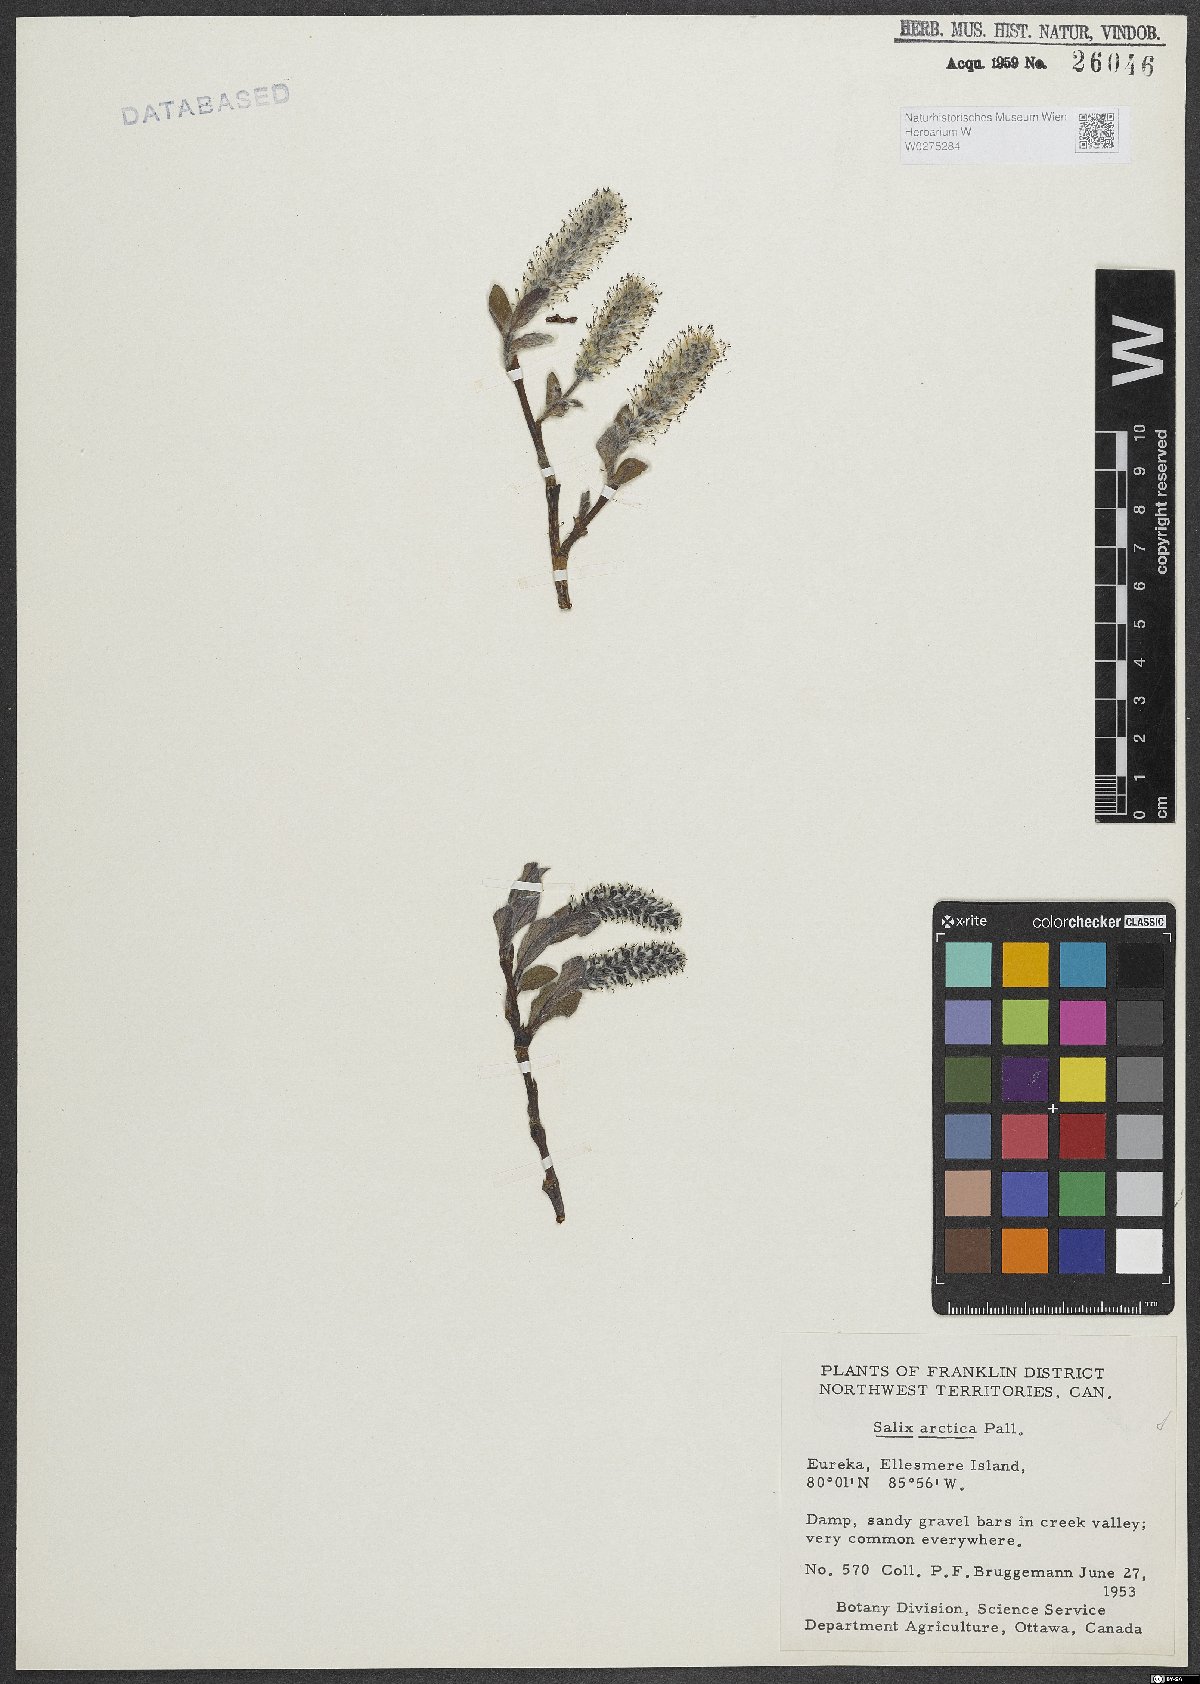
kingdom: Plantae
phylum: Tracheophyta
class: Magnoliopsida
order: Malpighiales
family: Salicaceae
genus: Salix
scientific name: Salix arctica
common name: Arctic willow
